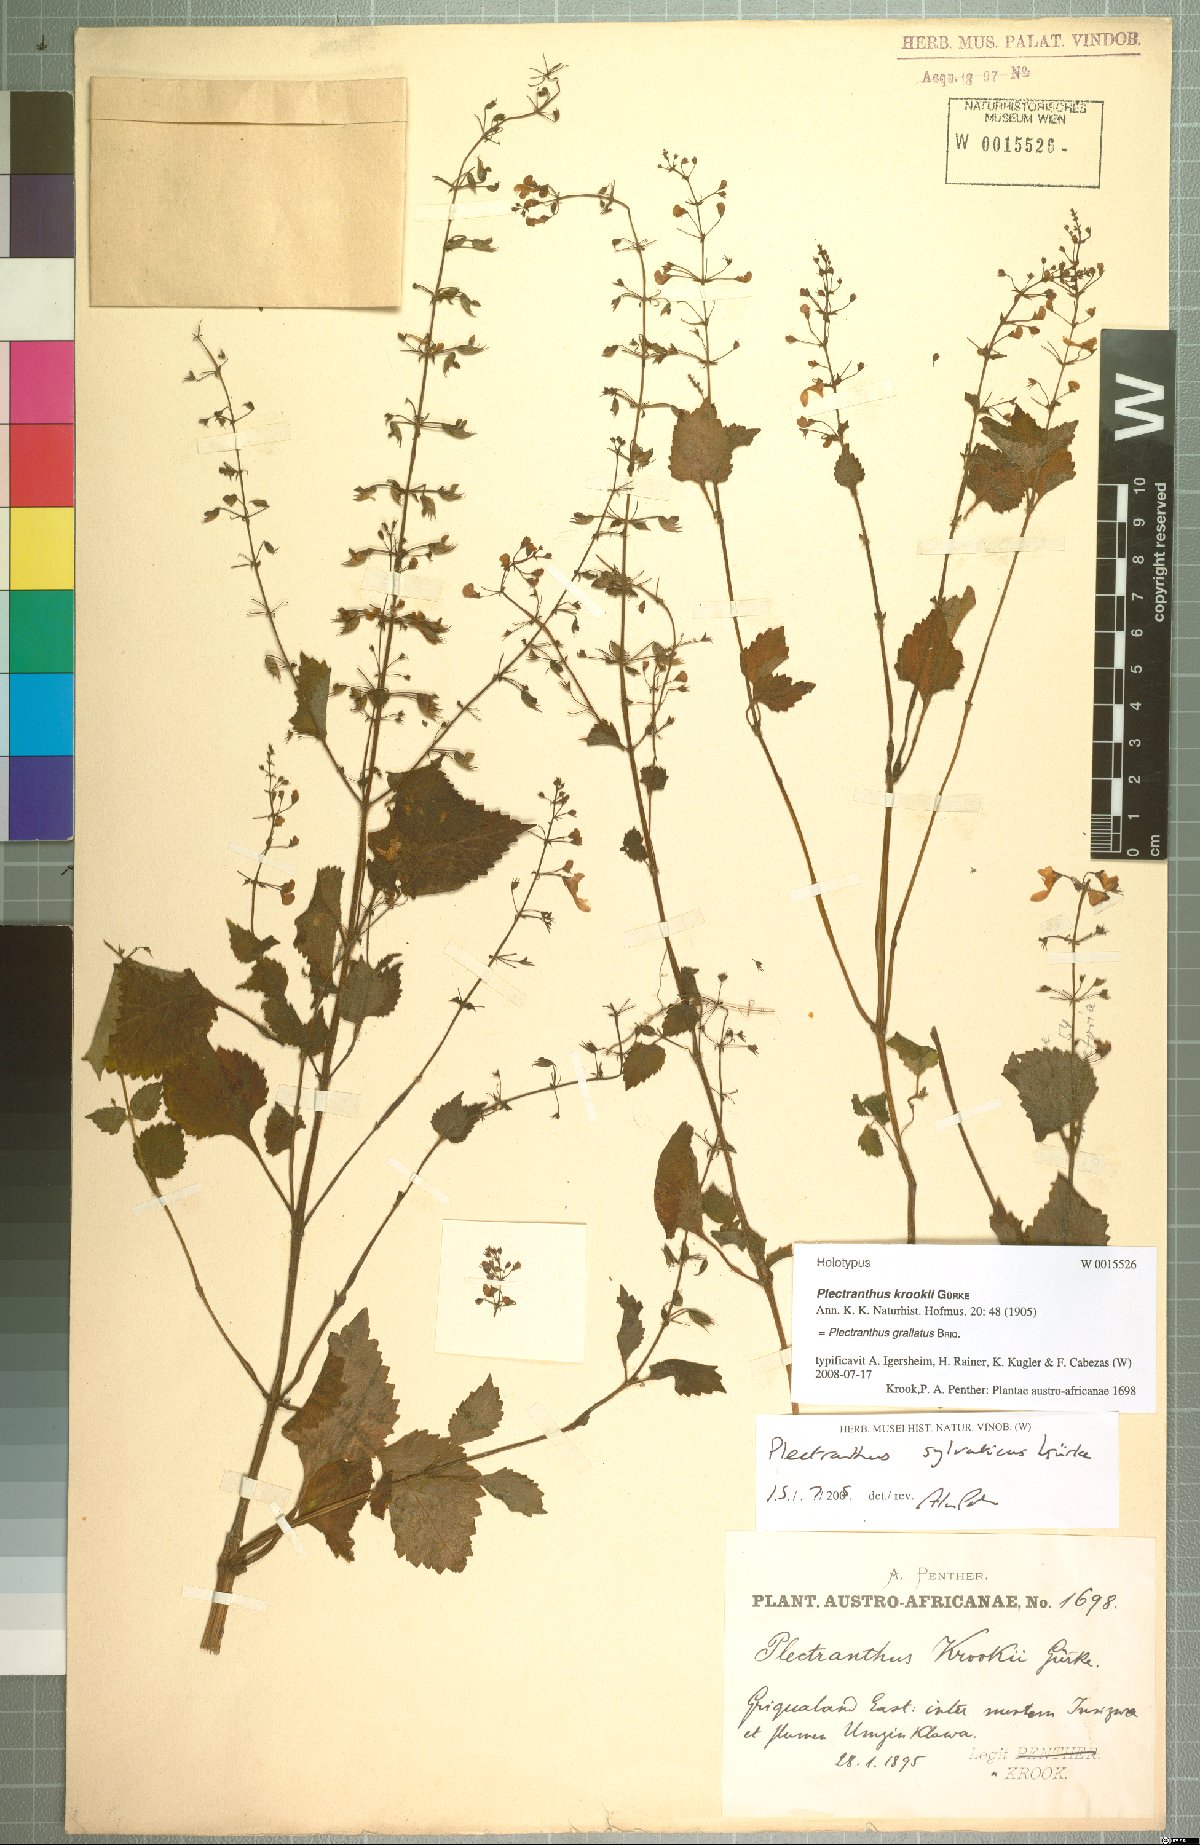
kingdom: Plantae
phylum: Tracheophyta
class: Magnoliopsida
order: Lamiales
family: Lamiaceae
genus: Plectranthus
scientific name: Plectranthus grallatus
